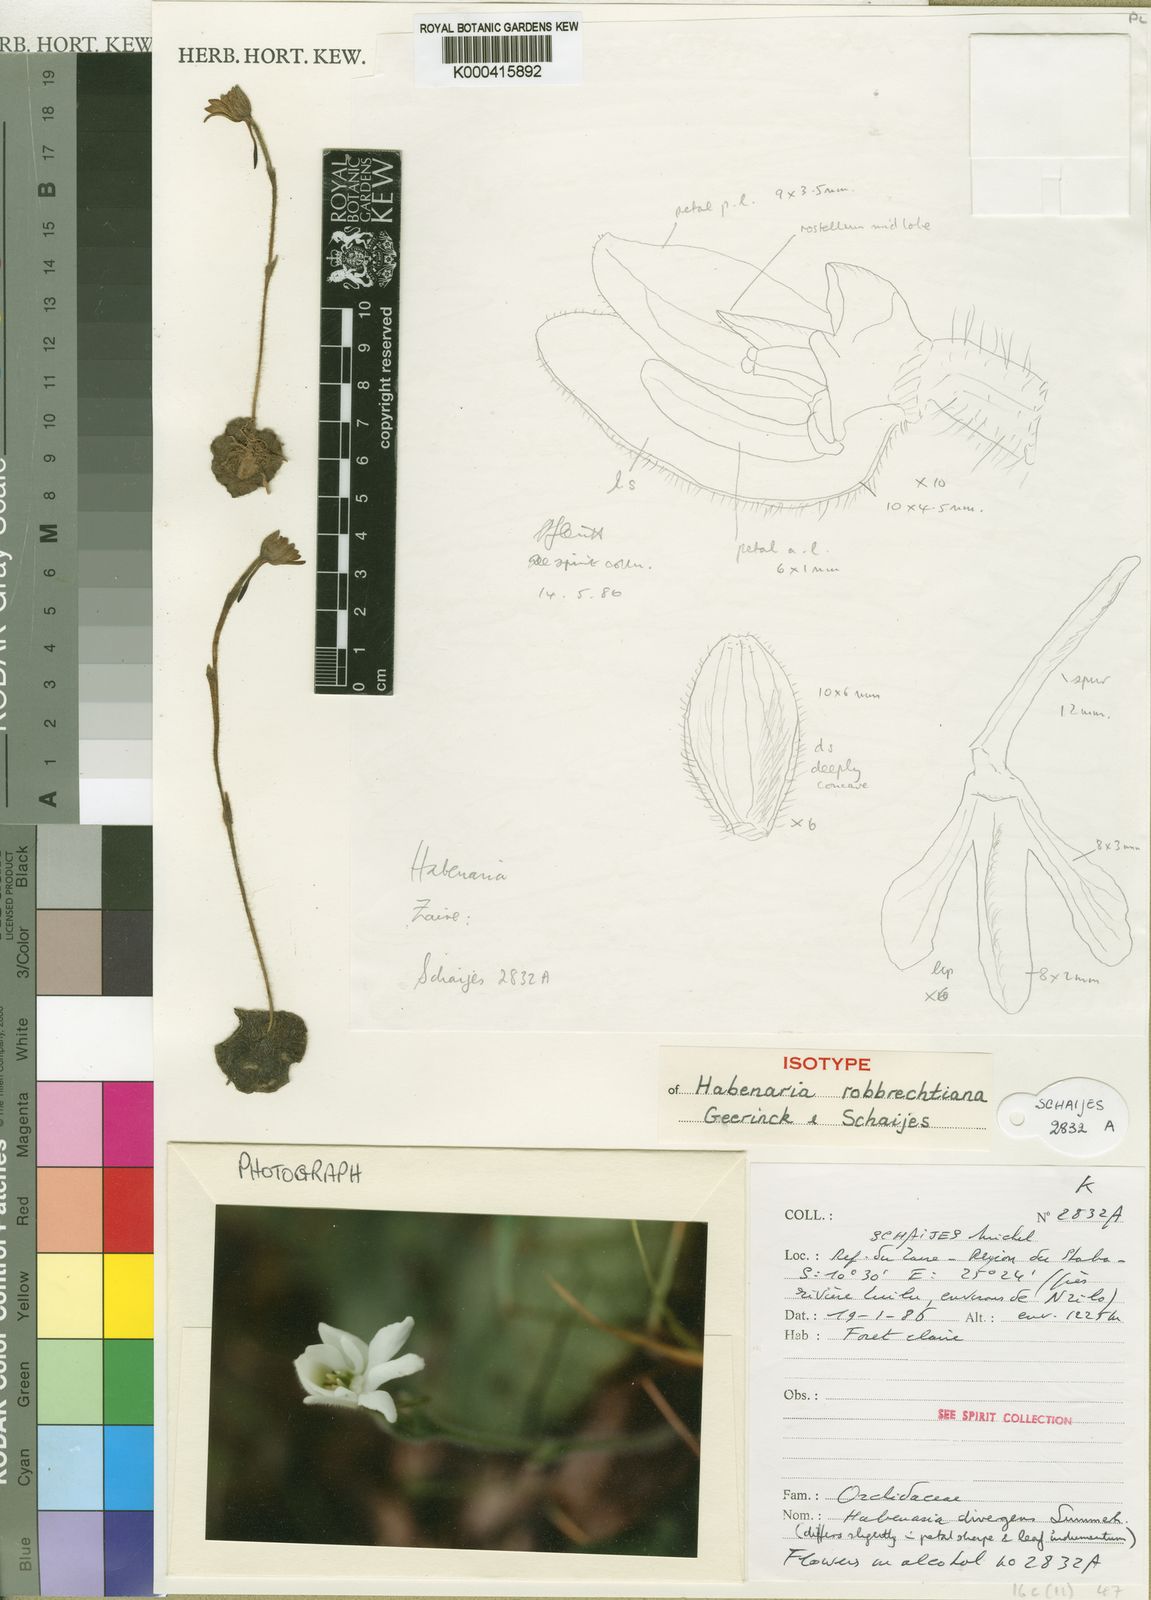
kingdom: Plantae
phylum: Tracheophyta
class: Liliopsida
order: Asparagales
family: Orchidaceae
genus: Habenaria
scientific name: Habenaria robbrechtiana
